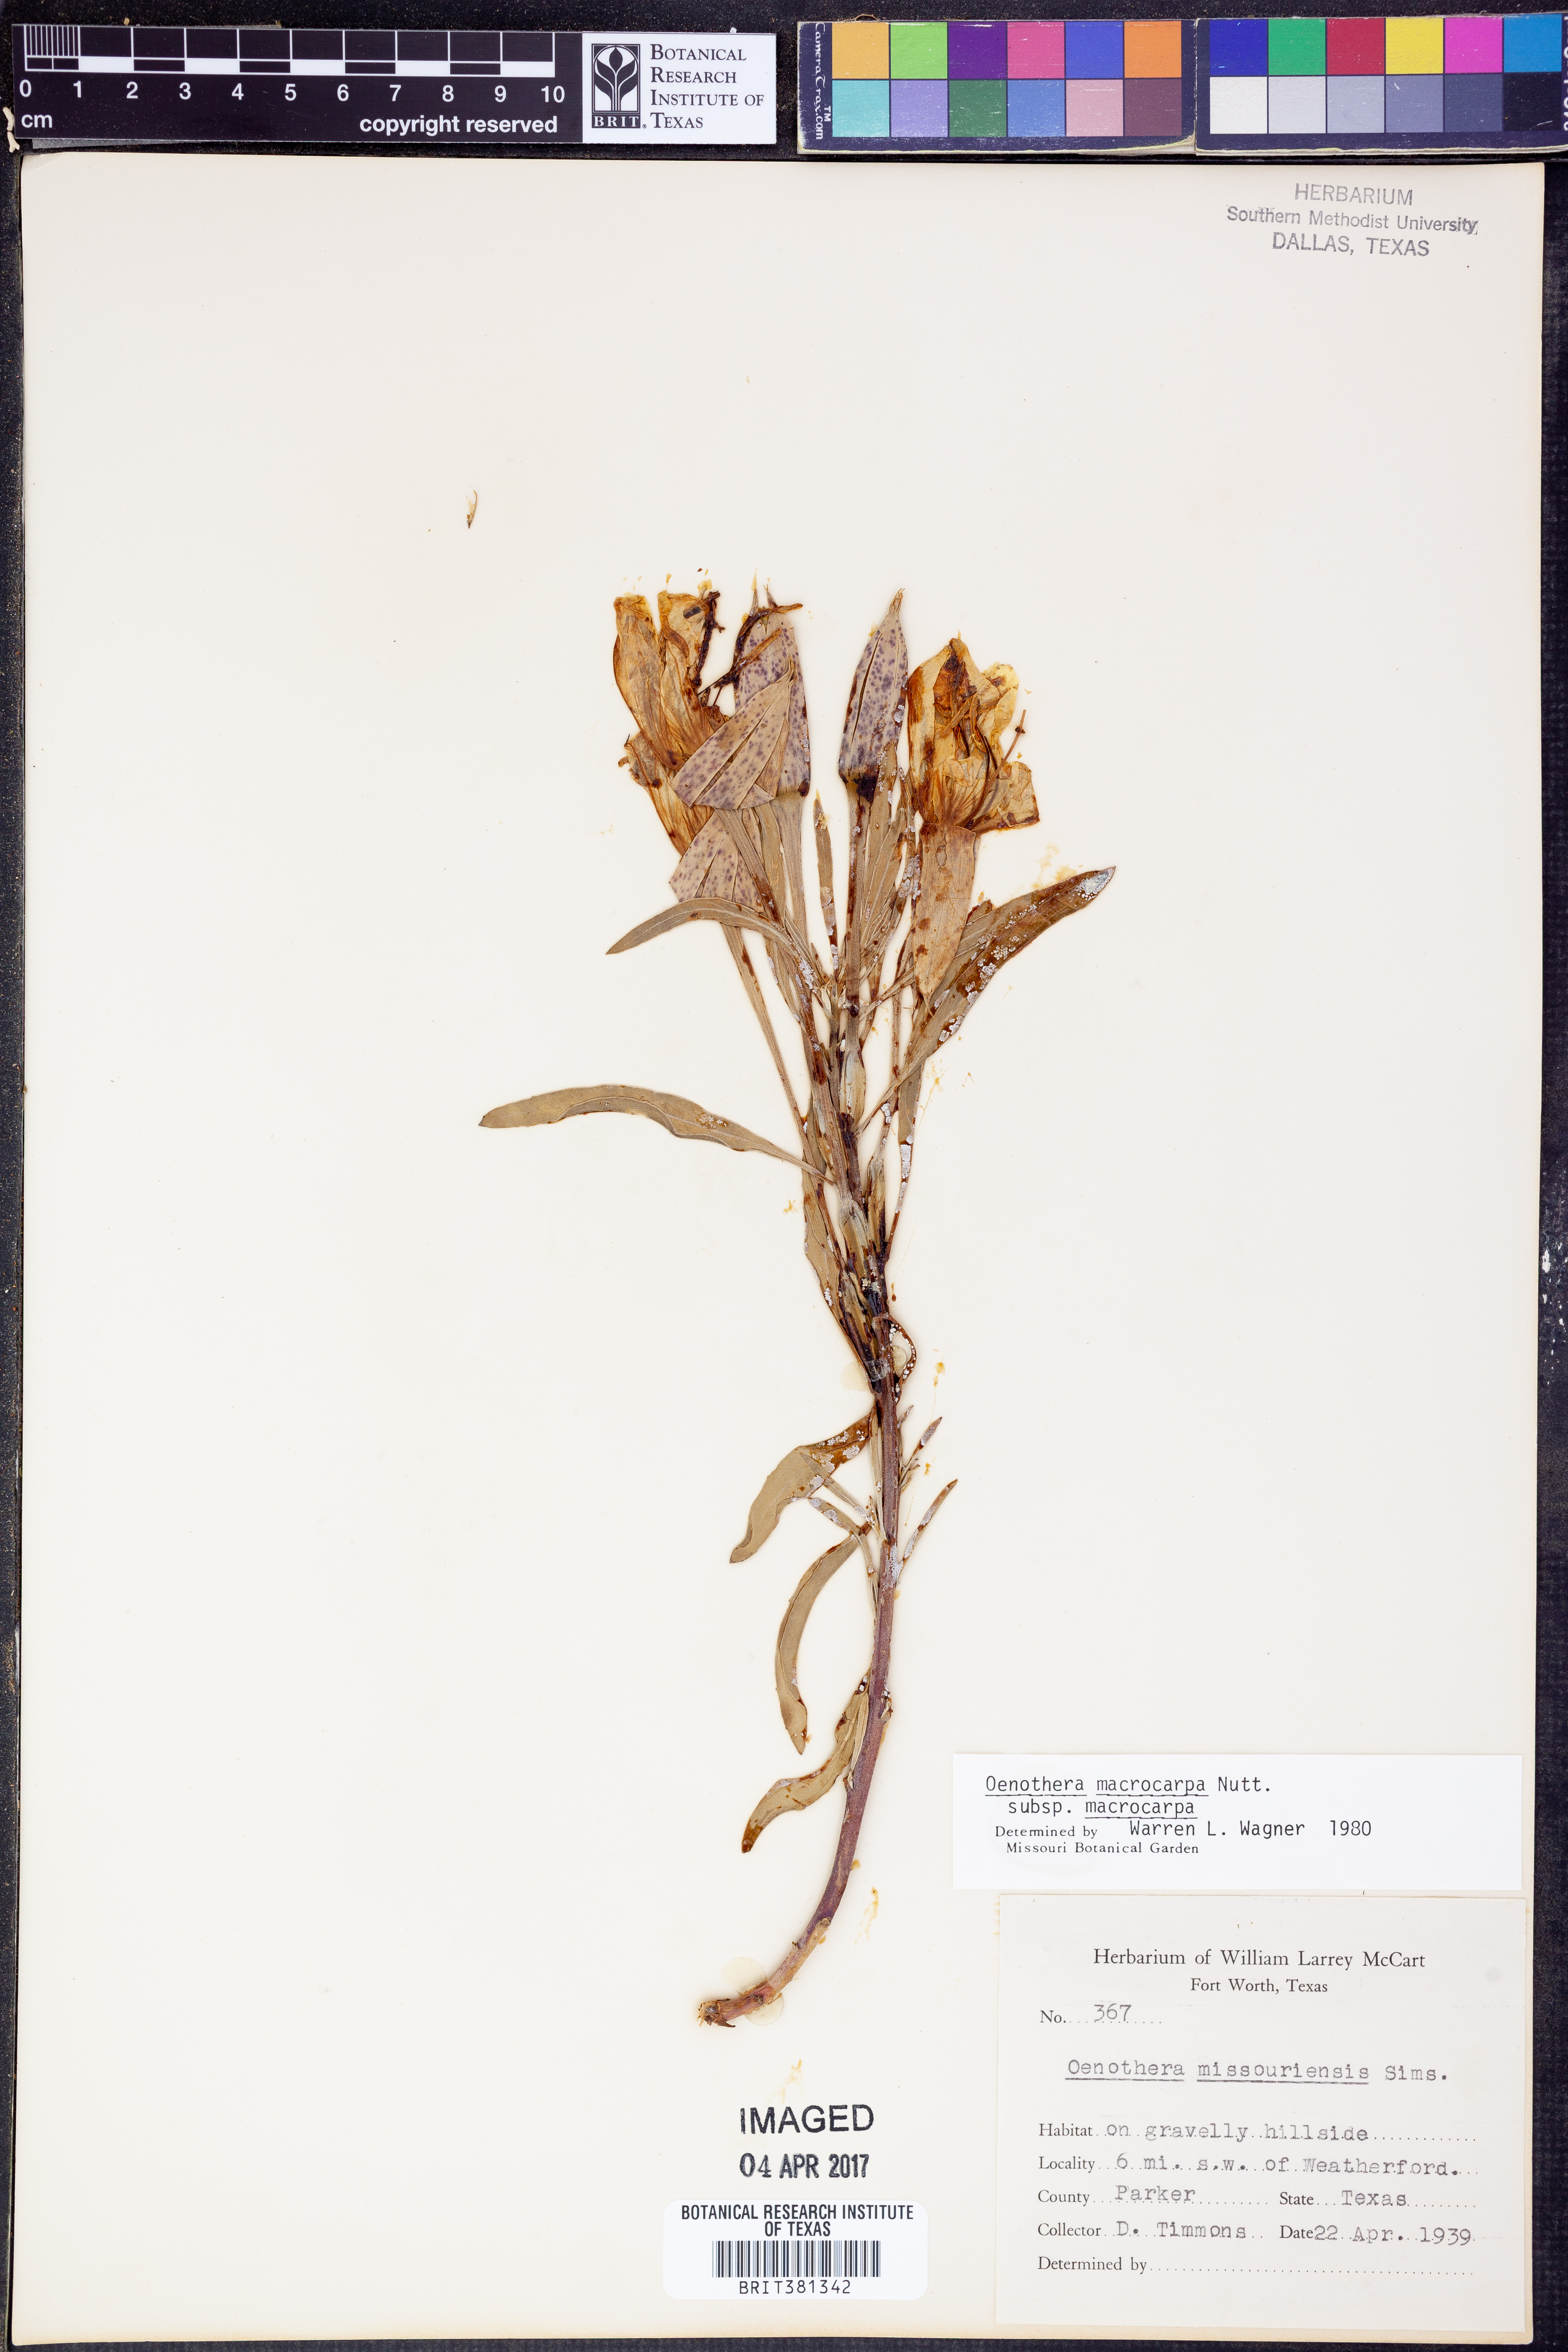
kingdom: Plantae
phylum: Tracheophyta
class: Magnoliopsida
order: Myrtales
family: Onagraceae
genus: Oenothera
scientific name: Oenothera macrocarpa
